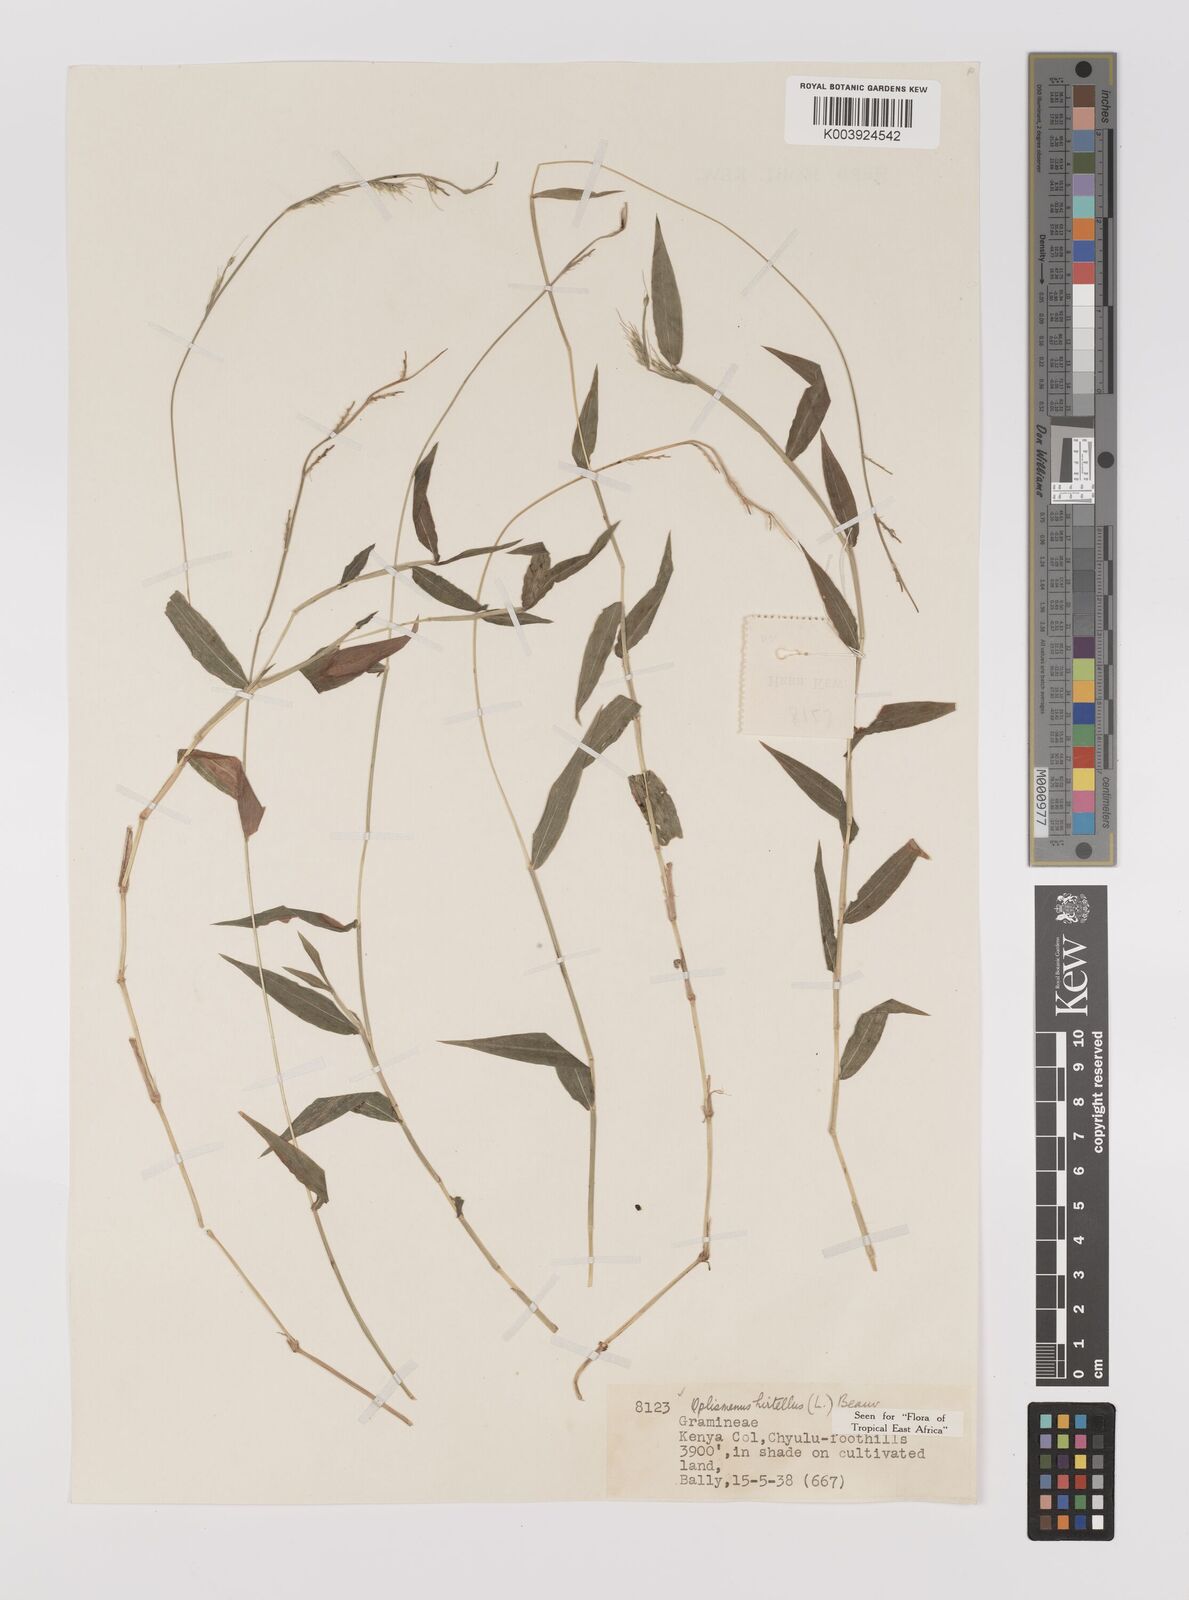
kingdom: Plantae
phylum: Tracheophyta
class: Liliopsida
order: Poales
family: Poaceae
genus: Oplismenus
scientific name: Oplismenus hirtellus
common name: Basketgrass
